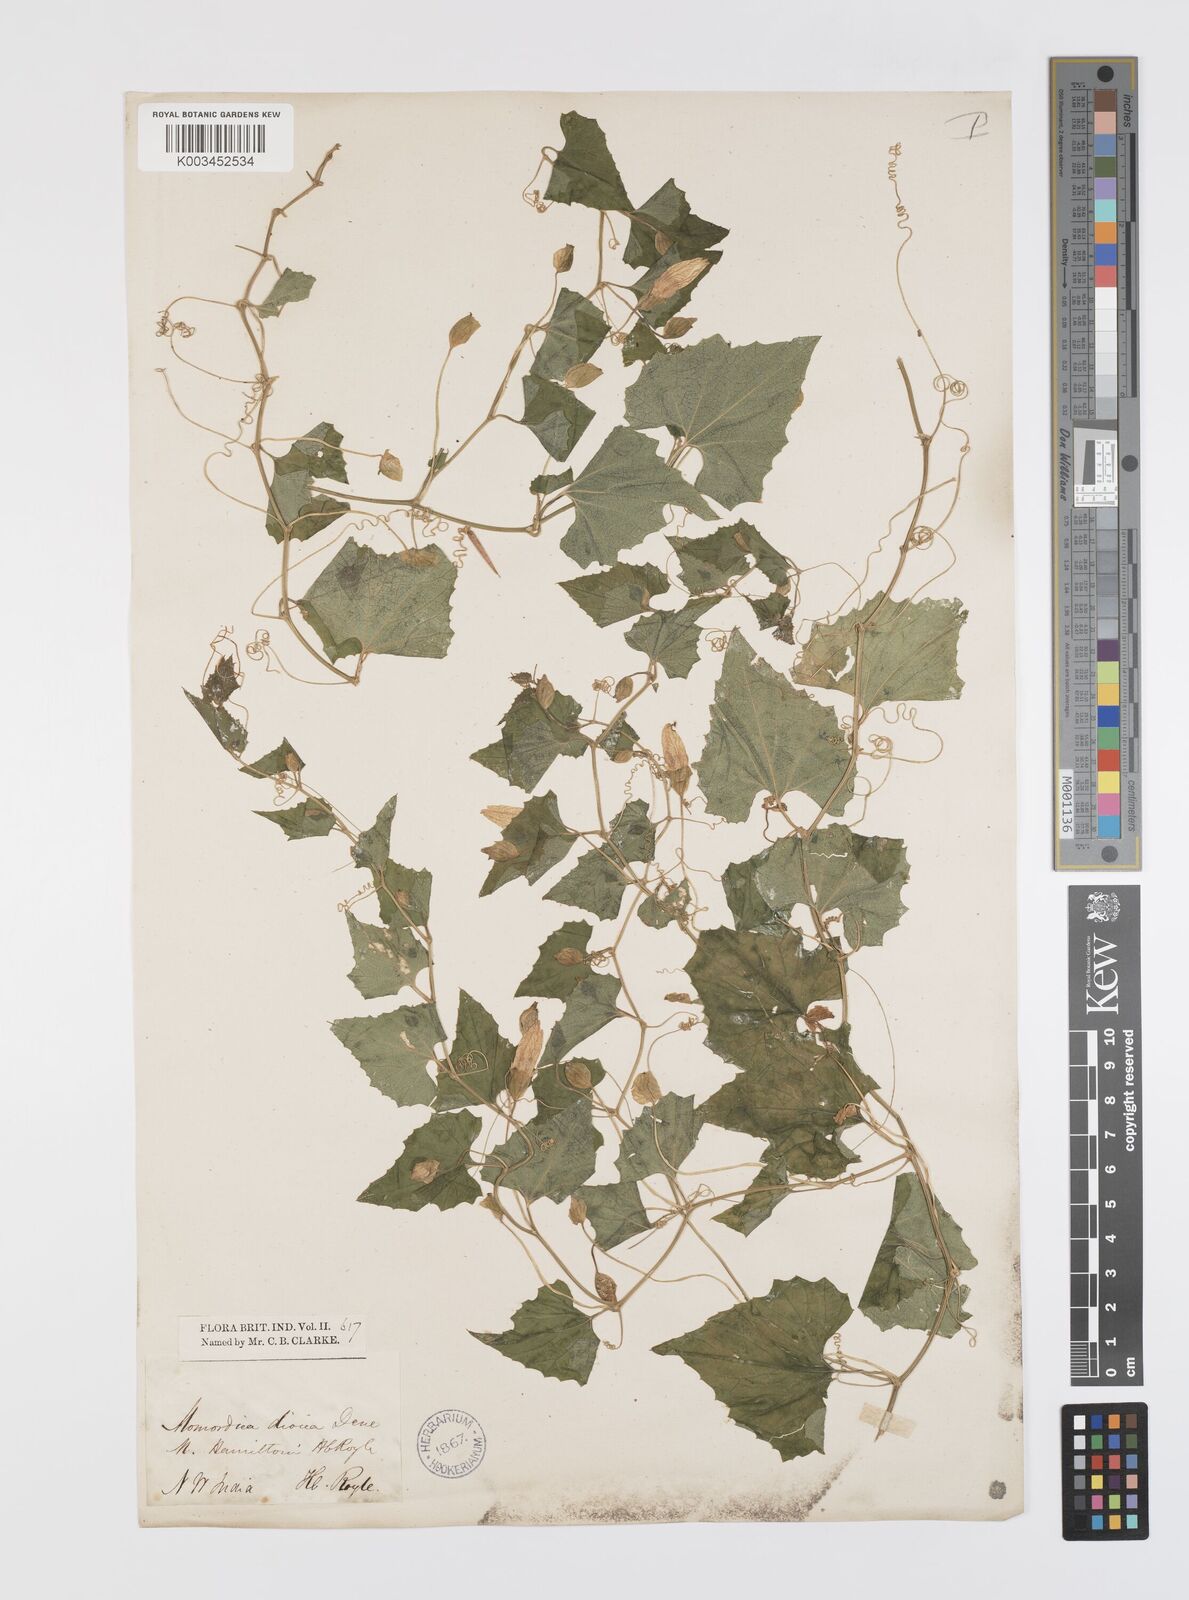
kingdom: Plantae
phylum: Tracheophyta
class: Magnoliopsida
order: Cucurbitales
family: Cucurbitaceae
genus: Momordica
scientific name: Momordica dioica
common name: Spine gourd
